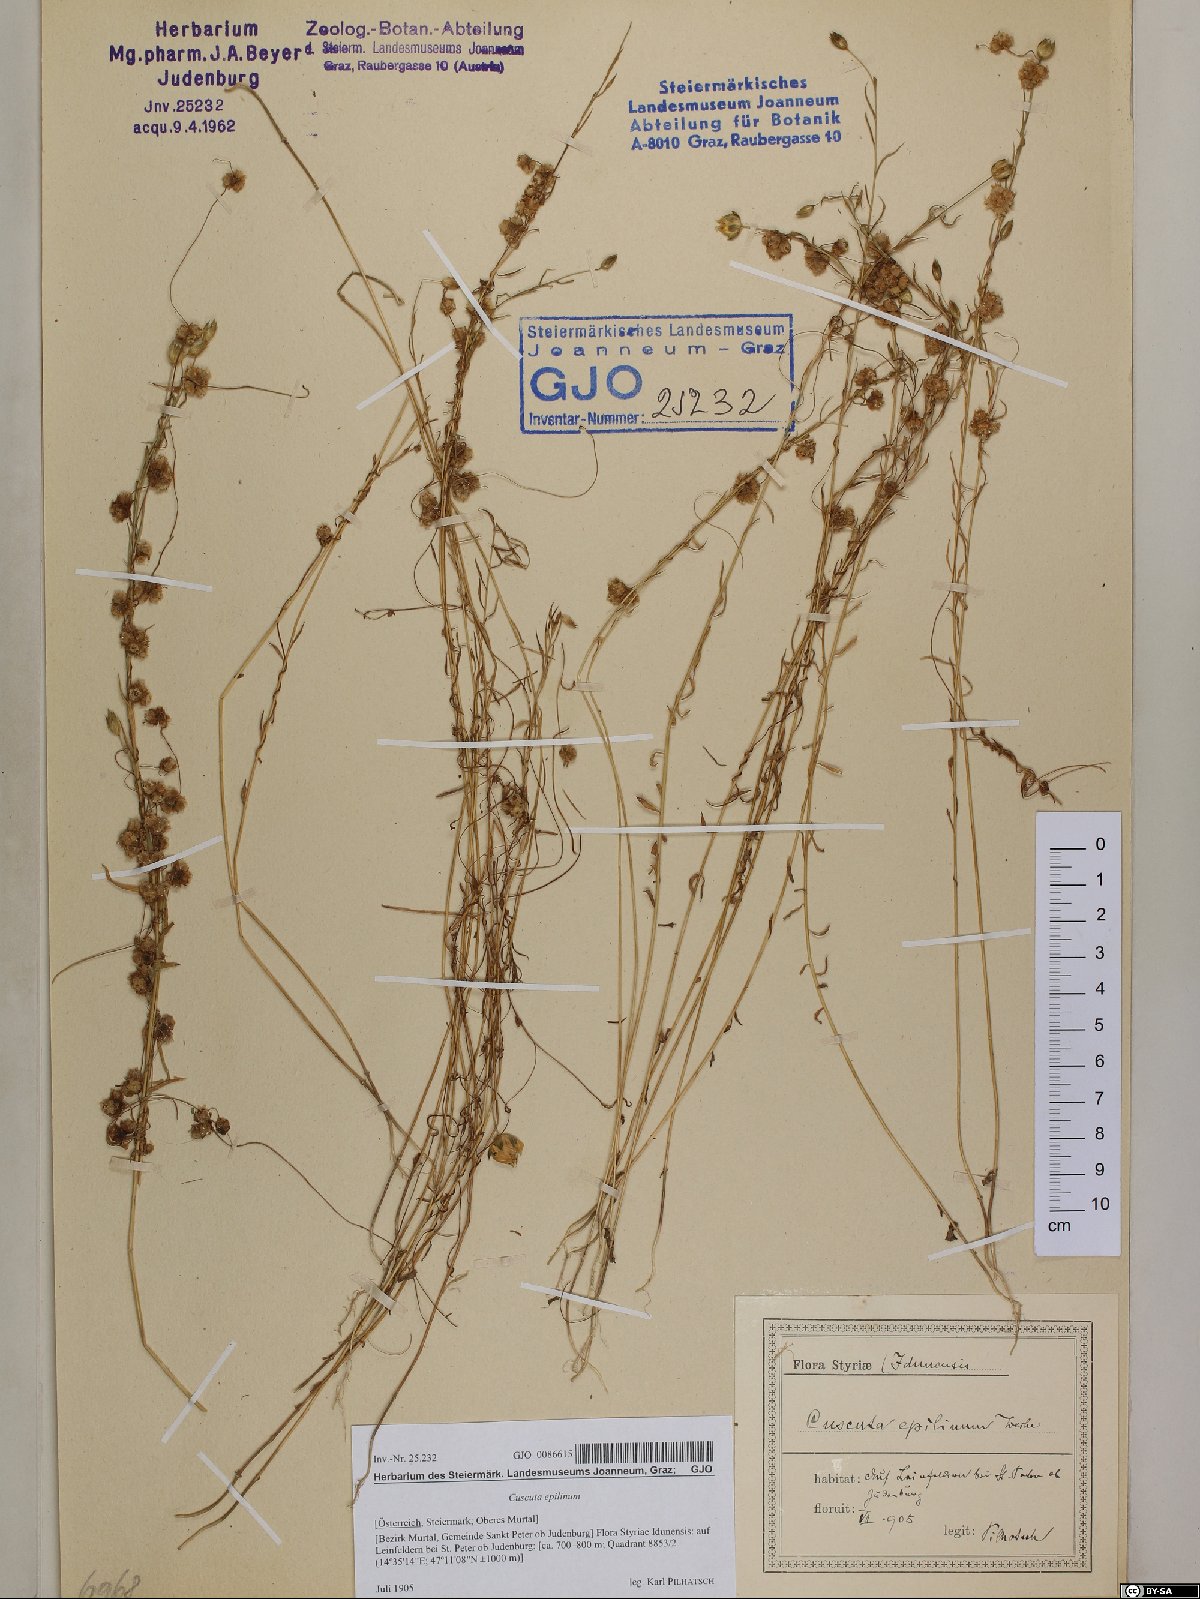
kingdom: Plantae
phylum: Tracheophyta
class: Magnoliopsida
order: Solanales
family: Convolvulaceae
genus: Cuscuta
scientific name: Cuscuta epilinum
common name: Flax dodder
